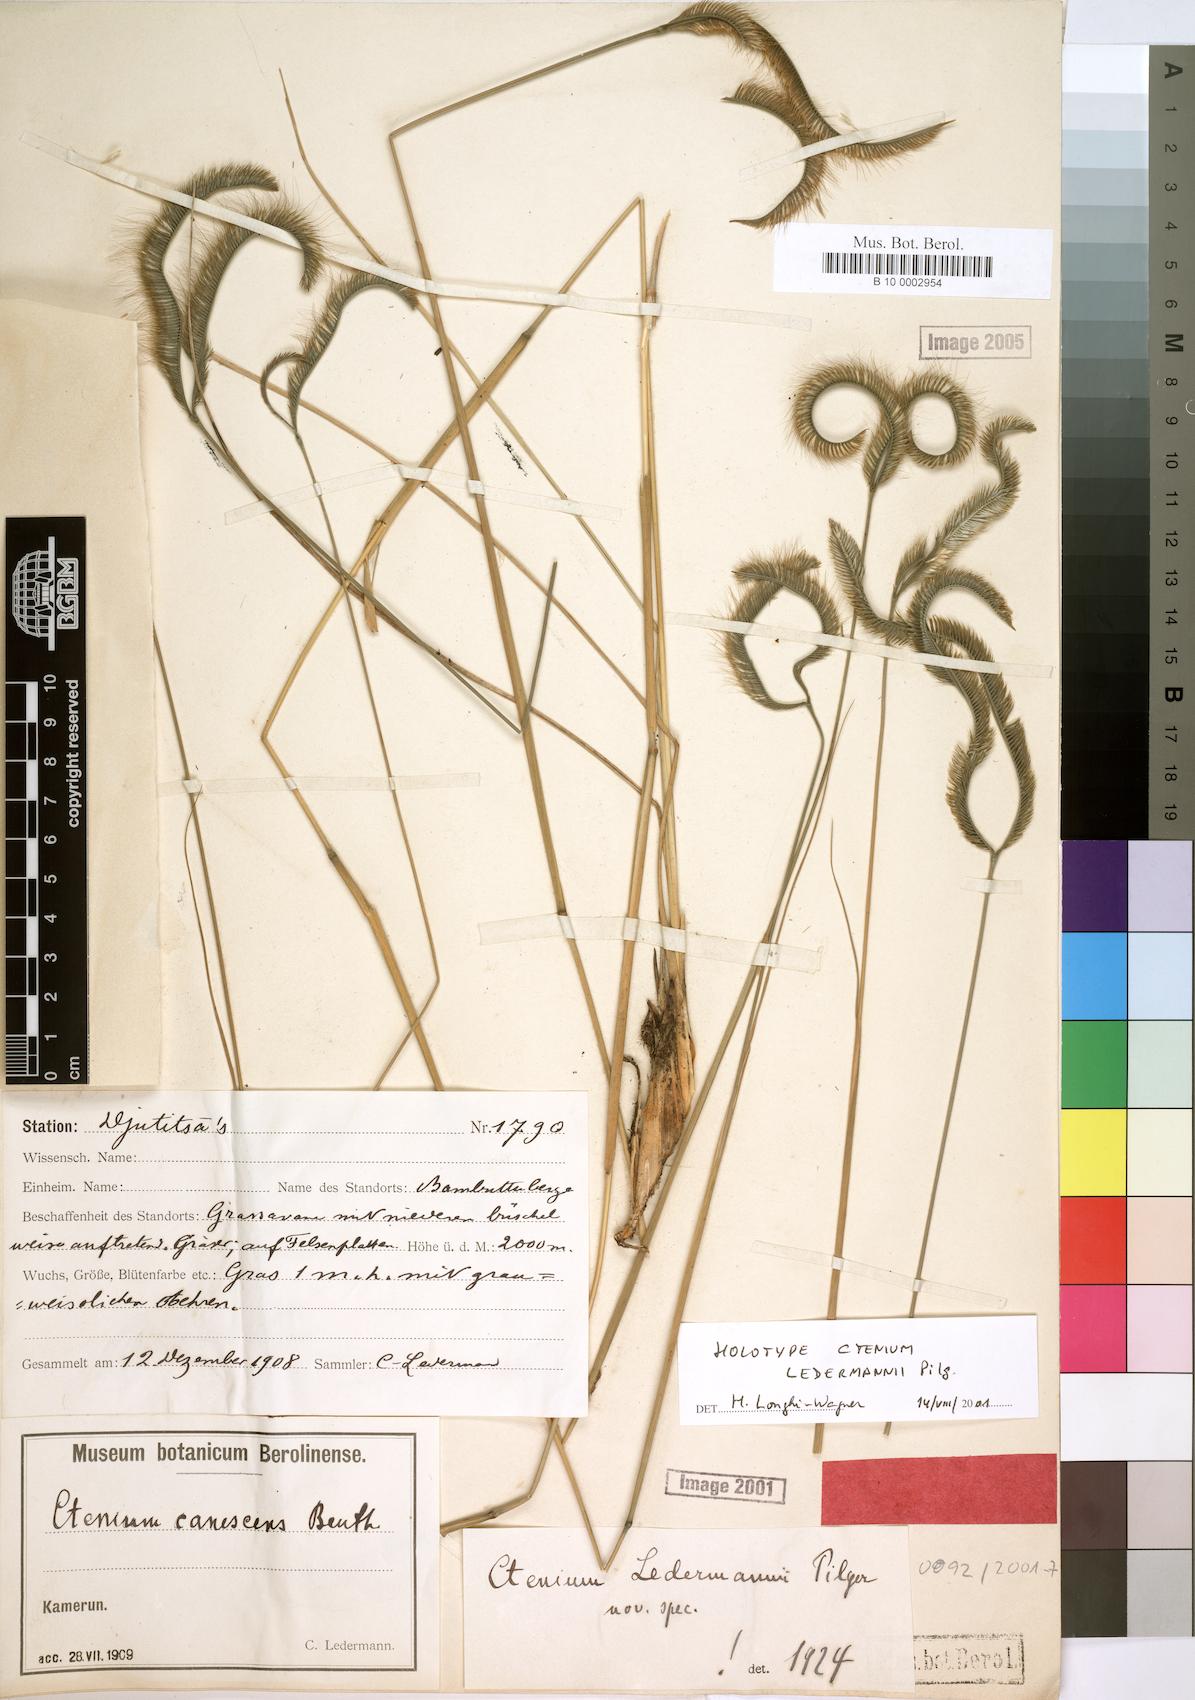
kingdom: Plantae
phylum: Tracheophyta
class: Liliopsida
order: Poales
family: Poaceae
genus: Ctenium
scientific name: Ctenium ledermannii
